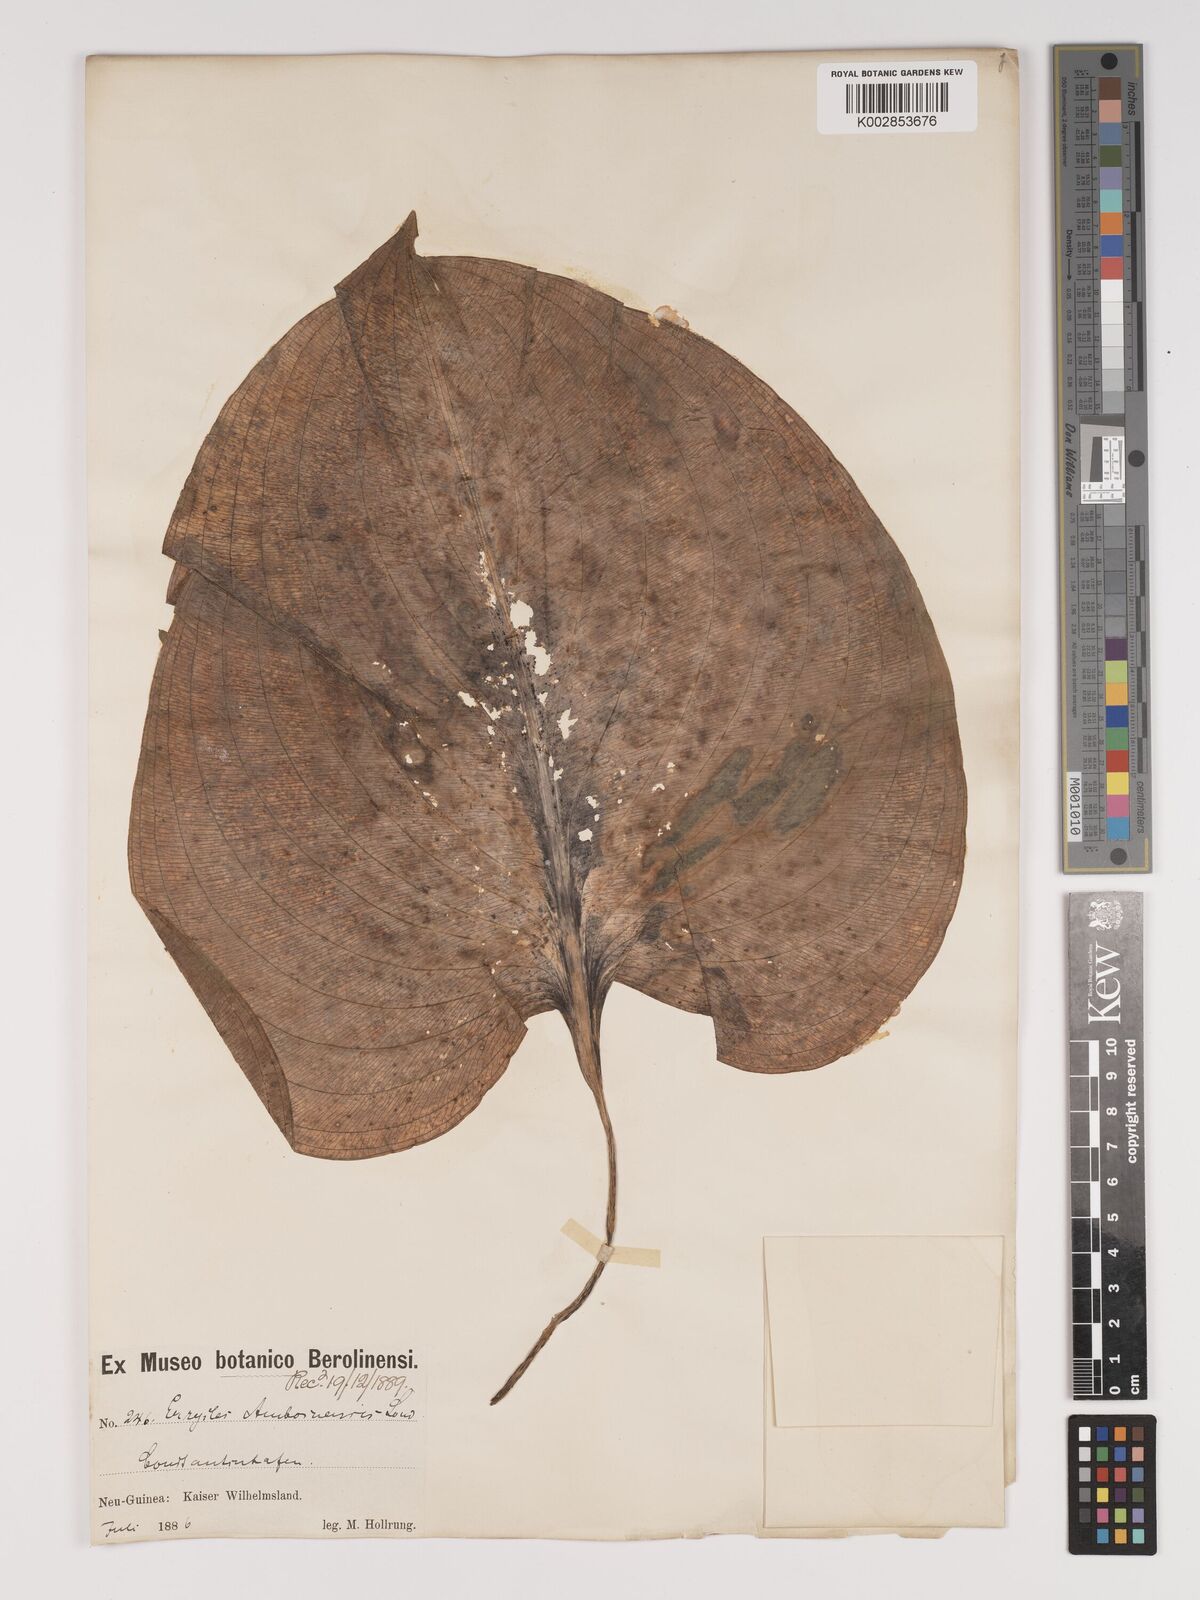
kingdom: Plantae
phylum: Tracheophyta
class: Liliopsida
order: Asparagales
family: Amaryllidaceae
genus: Proiphys
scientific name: Proiphys
